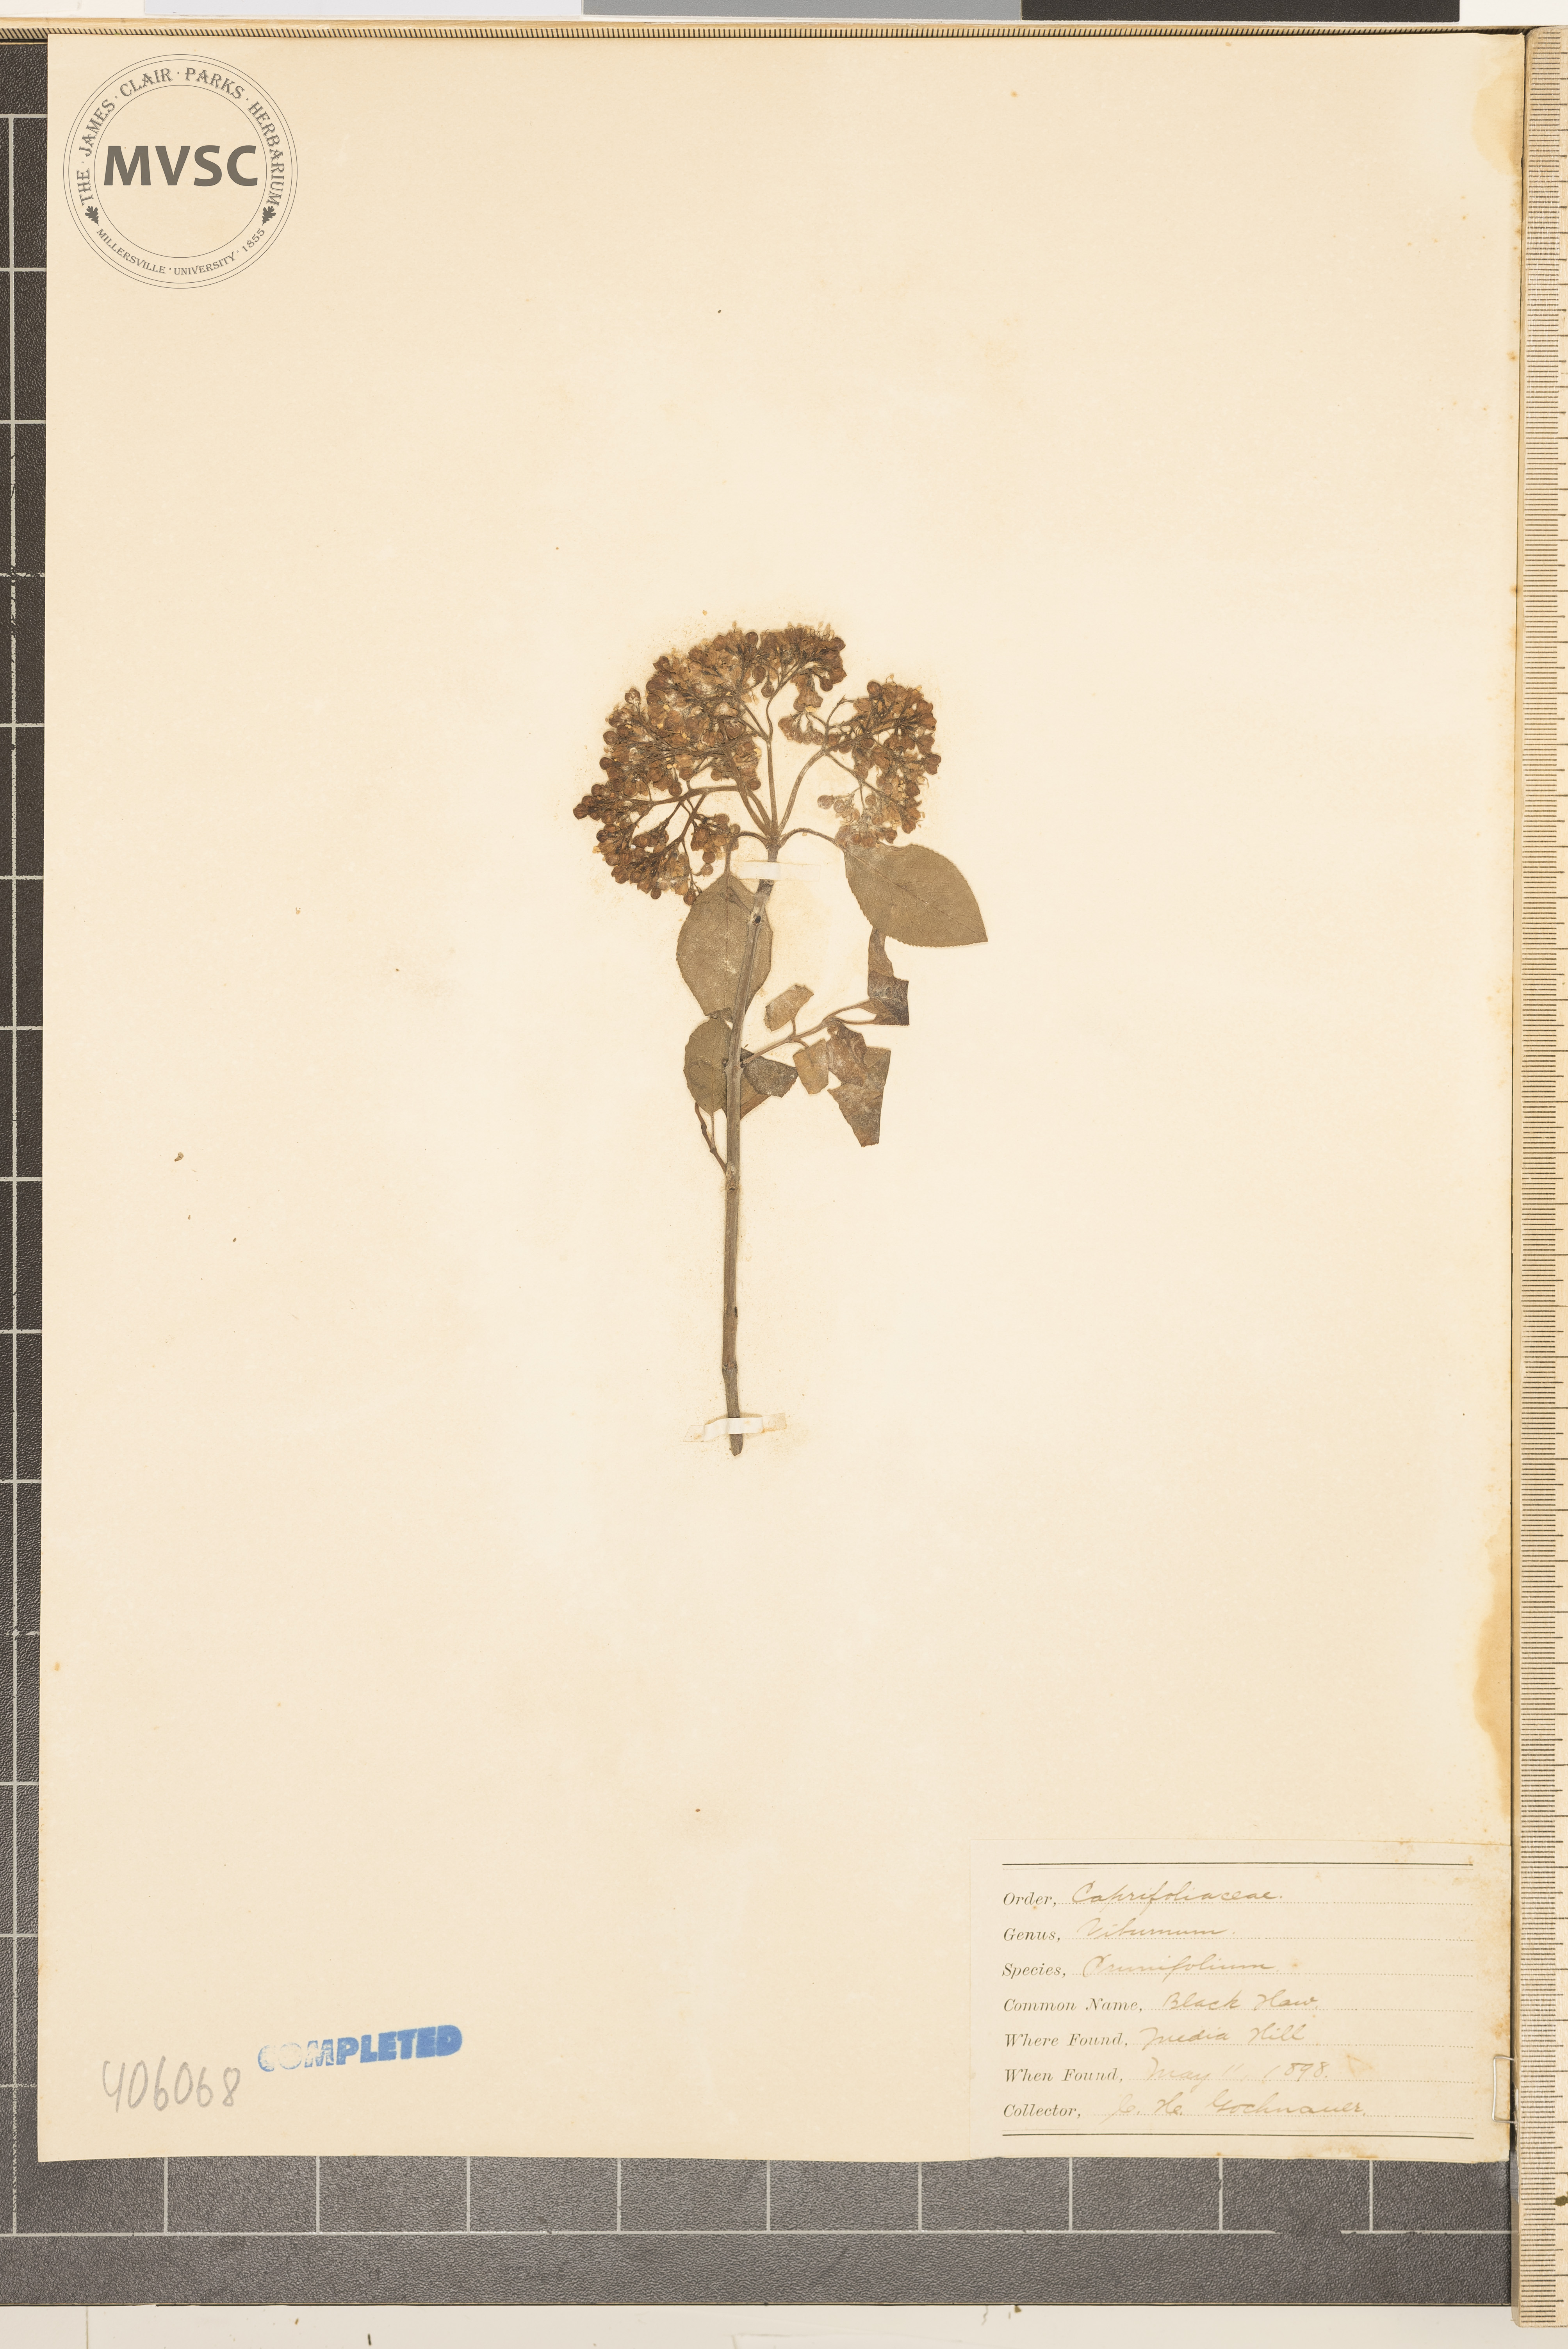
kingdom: Plantae
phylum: Tracheophyta
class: Magnoliopsida
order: Dipsacales
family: Viburnaceae
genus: Viburnum
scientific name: Viburnum prunifolium
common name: blackhaw
